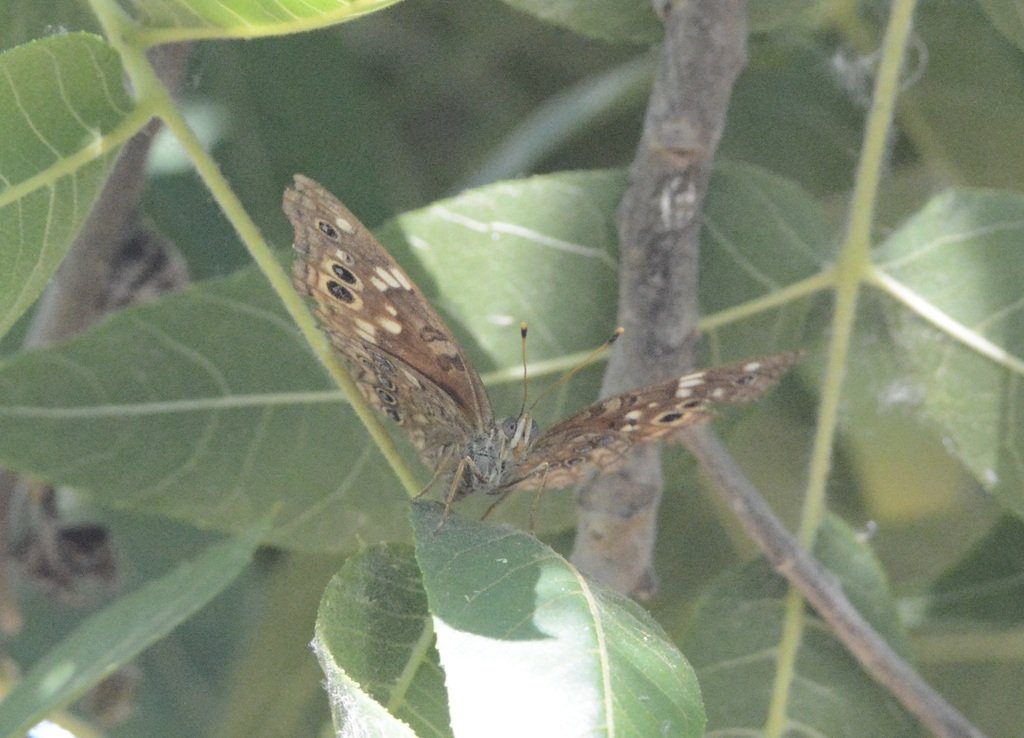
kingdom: Animalia
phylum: Arthropoda
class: Insecta
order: Lepidoptera
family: Nymphalidae
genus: Asterocampa
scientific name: Asterocampa leilia
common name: Empress Leilia
